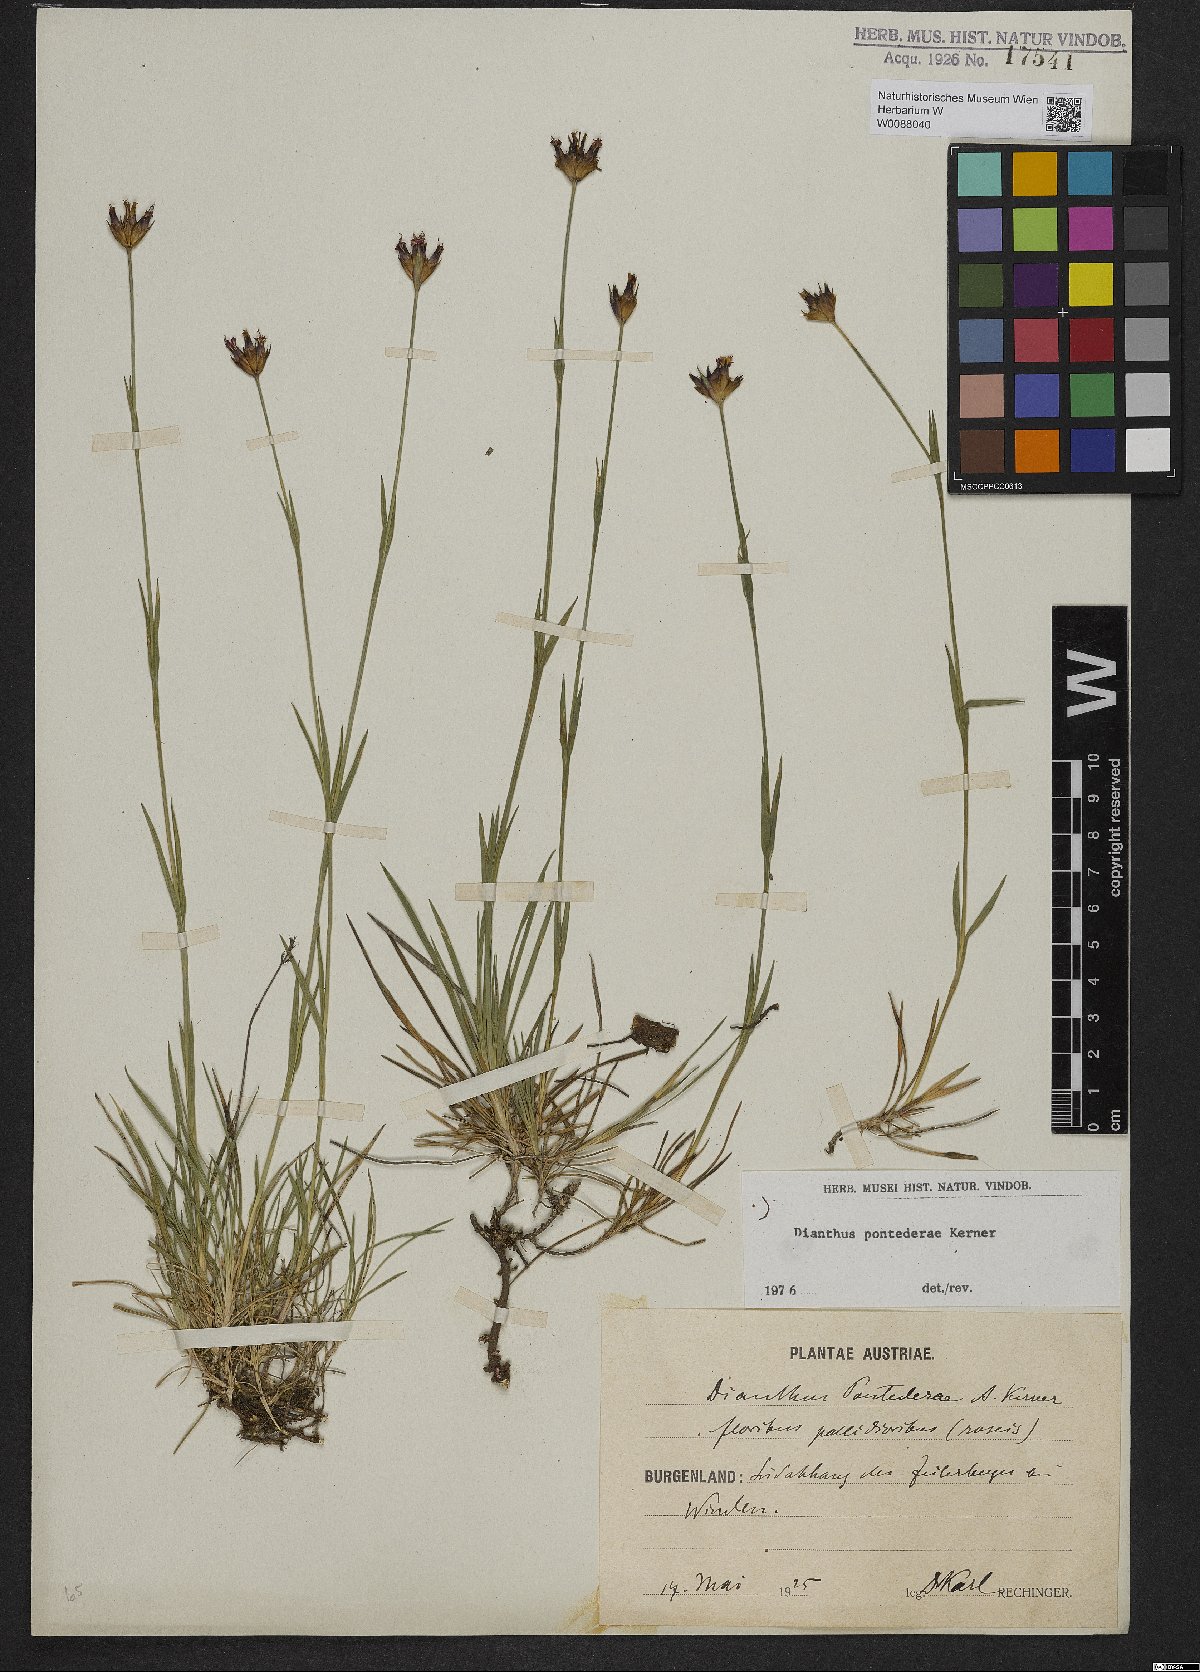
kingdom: Plantae
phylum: Tracheophyta
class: Magnoliopsida
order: Caryophyllales
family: Caryophyllaceae
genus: Dianthus
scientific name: Dianthus pontederae
